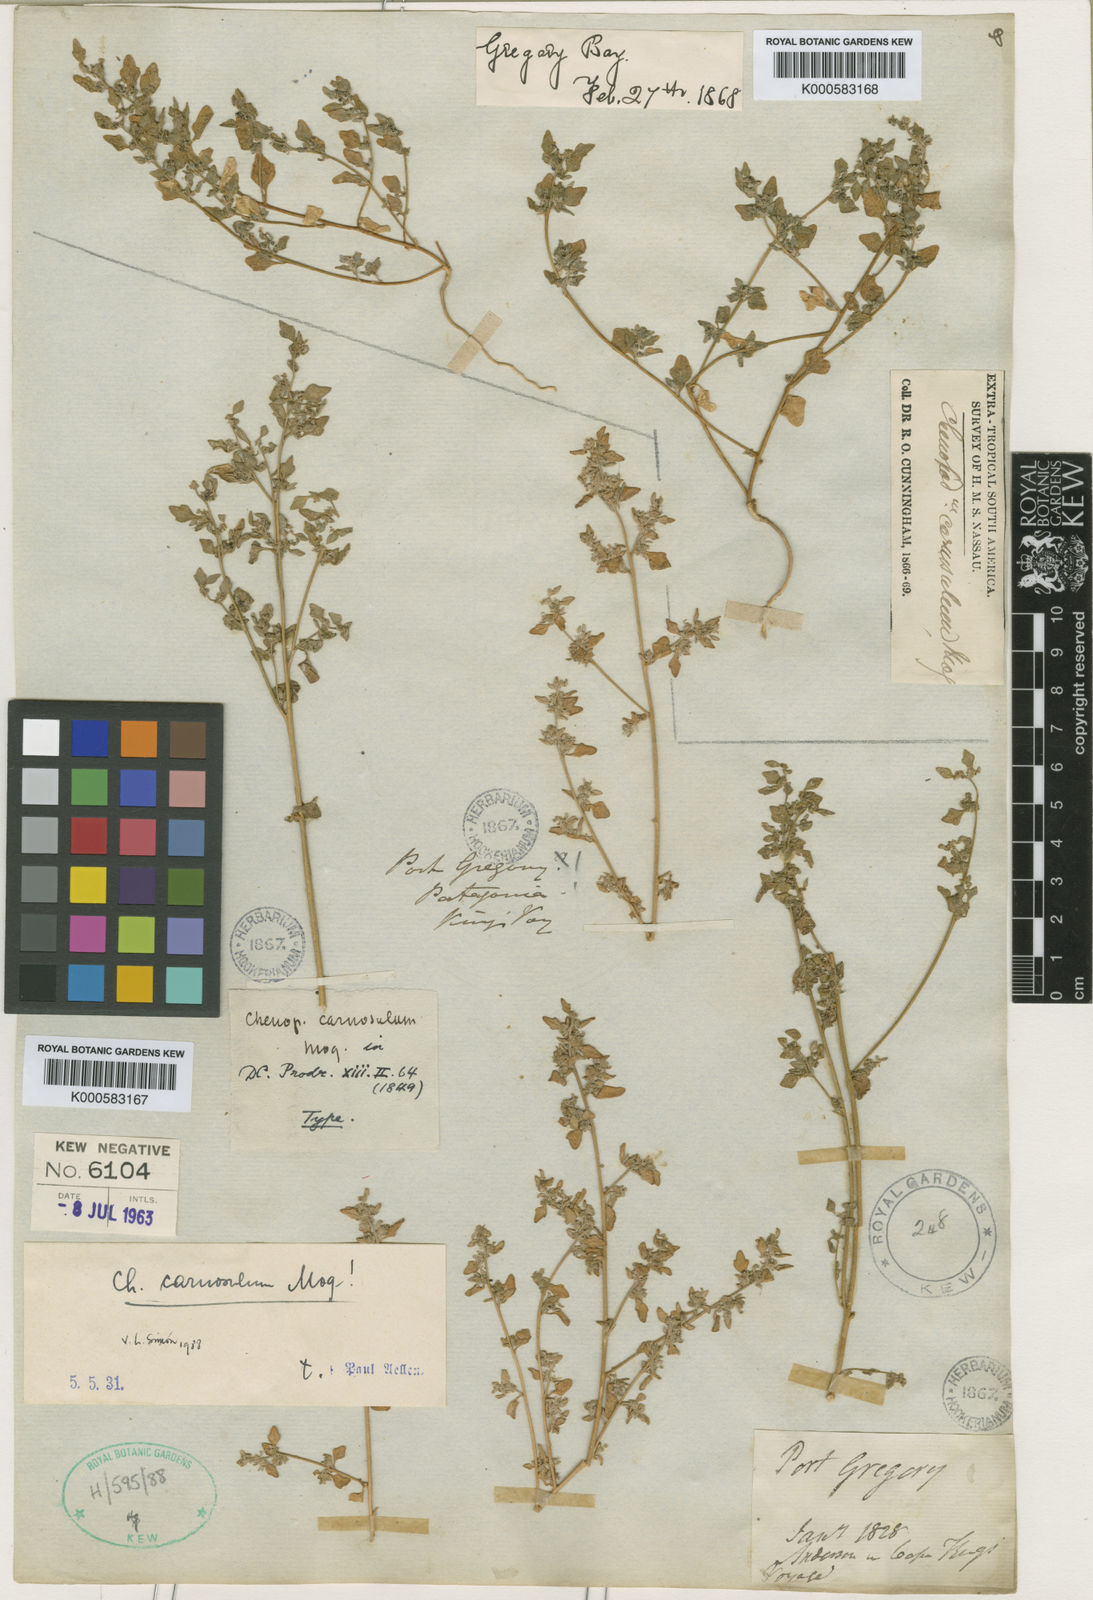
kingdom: Plantae
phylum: Tracheophyta
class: Magnoliopsida
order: Caryophyllales
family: Amaranthaceae
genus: Chenopodium
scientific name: Chenopodium carnosulum
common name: Ridged goosefoot
